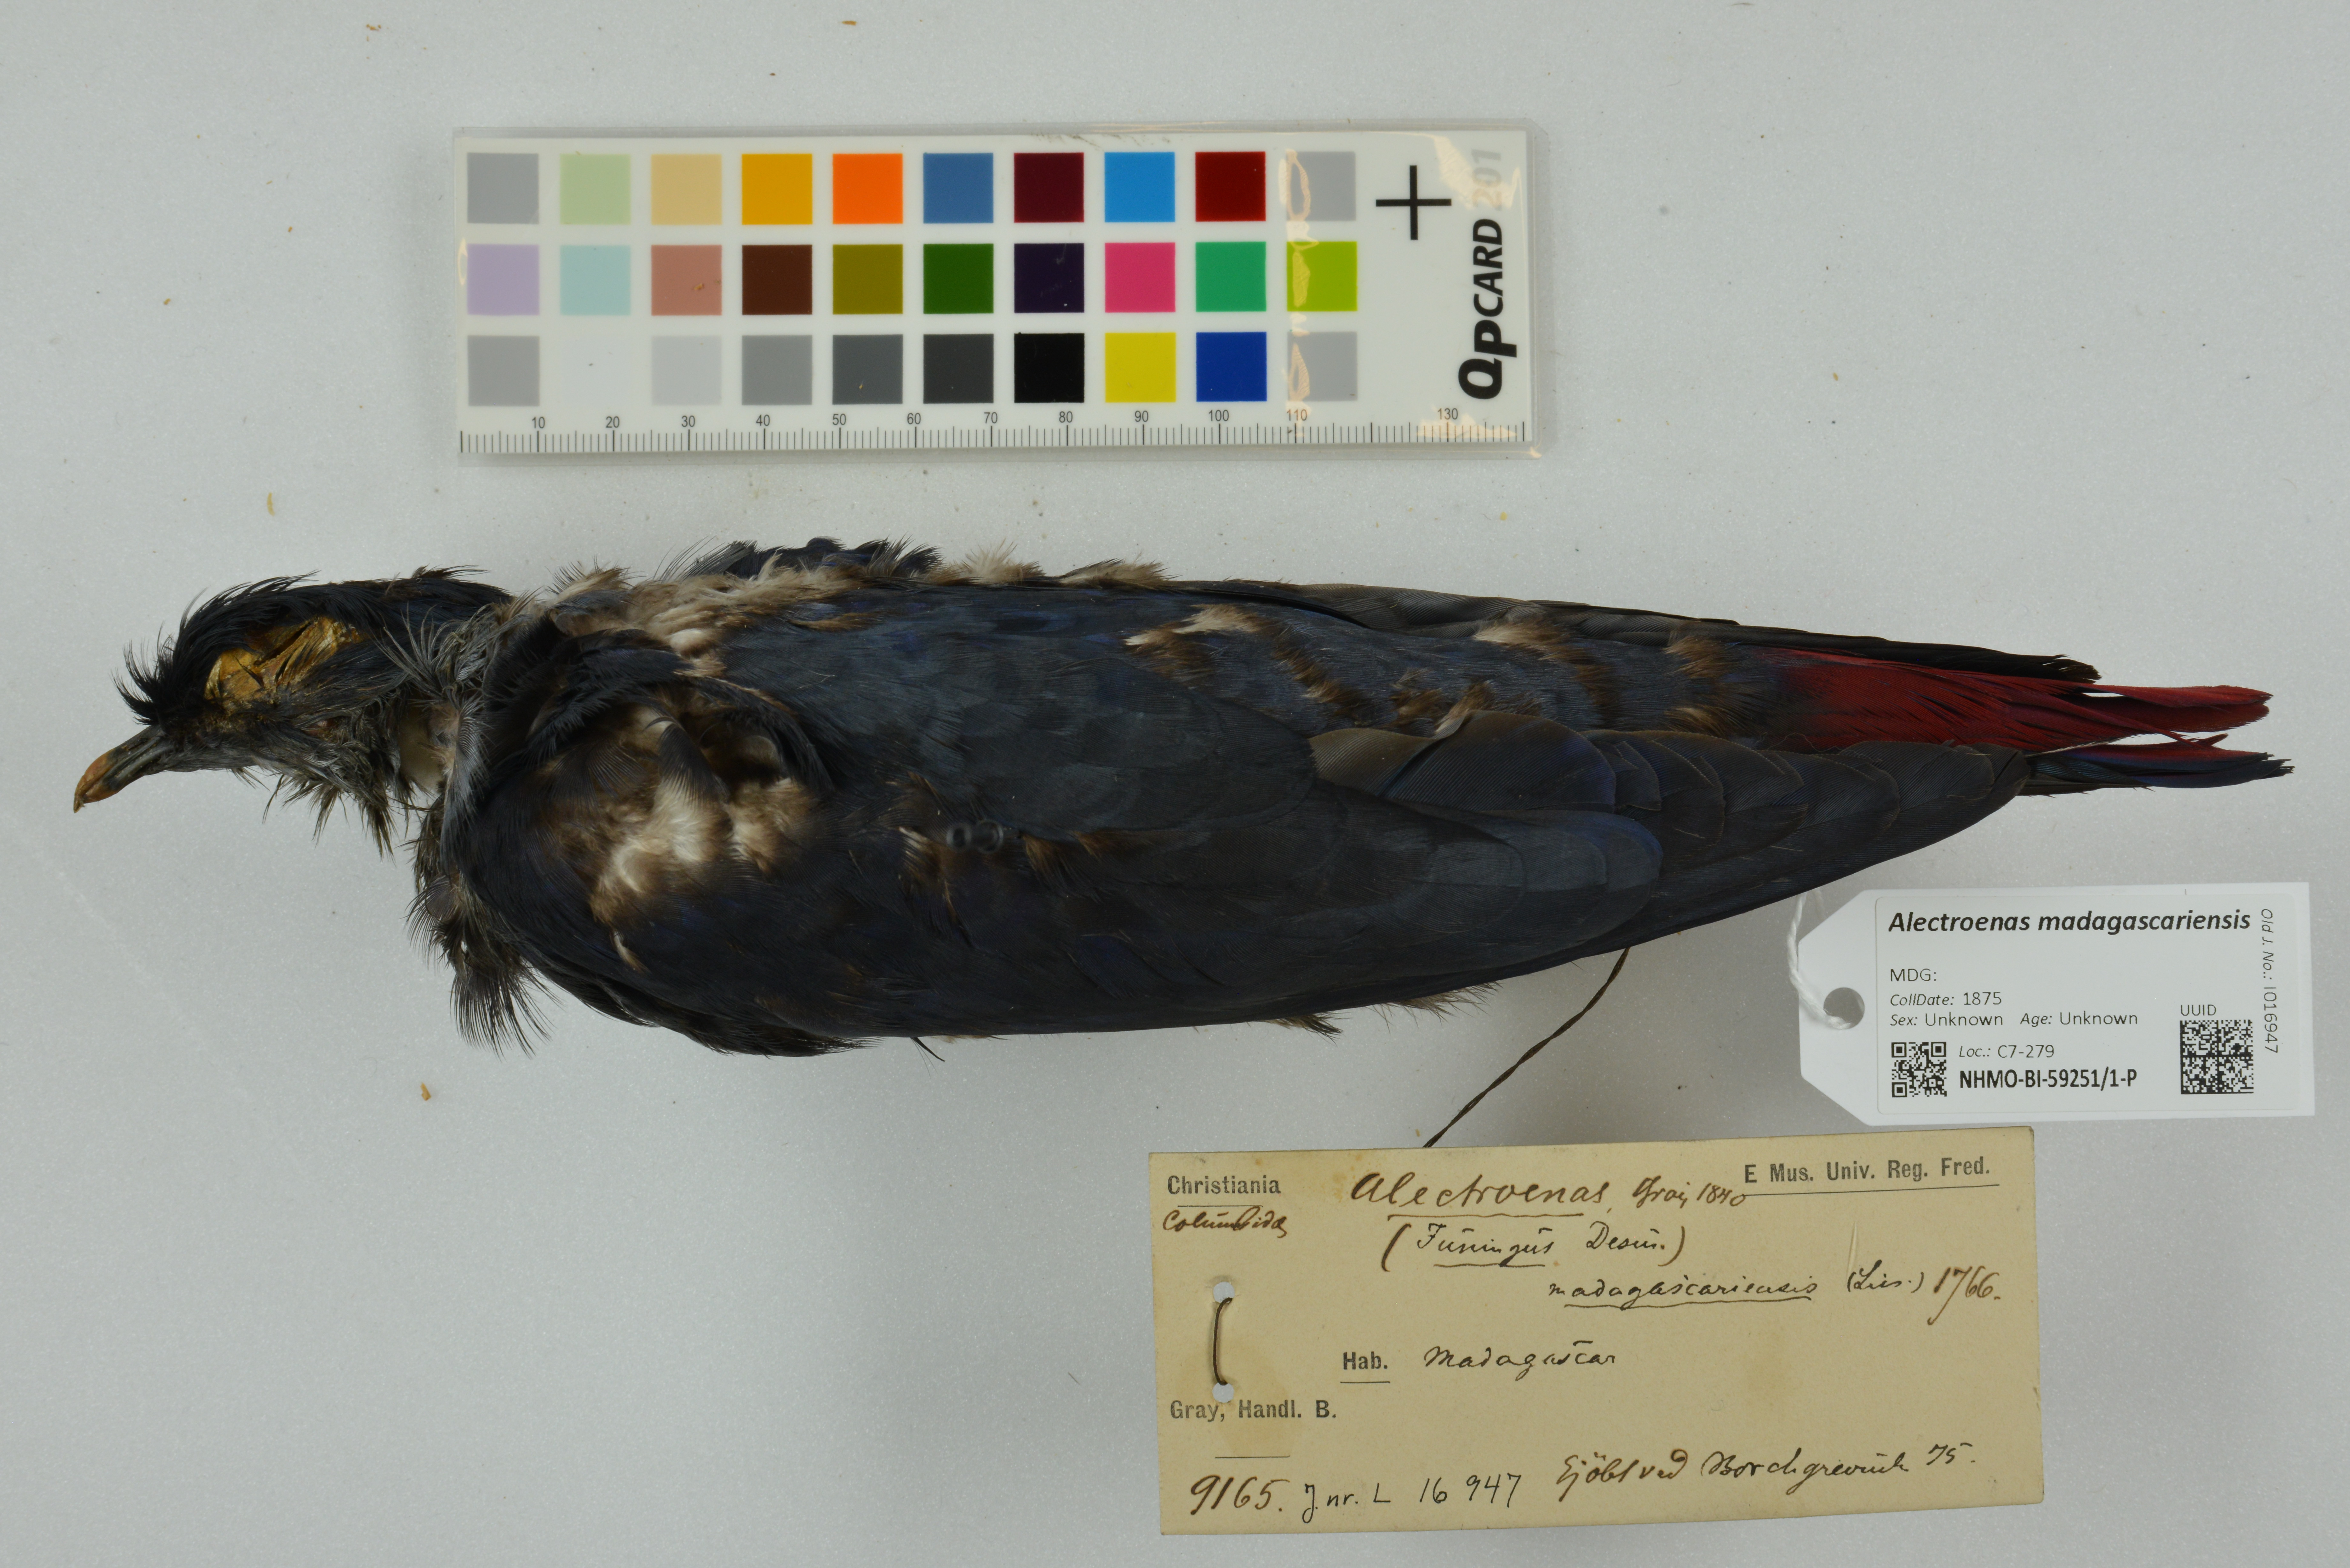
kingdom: Animalia
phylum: Chordata
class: Aves
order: Columbiformes
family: Columbidae
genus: Alectroenas
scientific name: Alectroenas madagascariensis
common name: Madagascar blue pigeon
